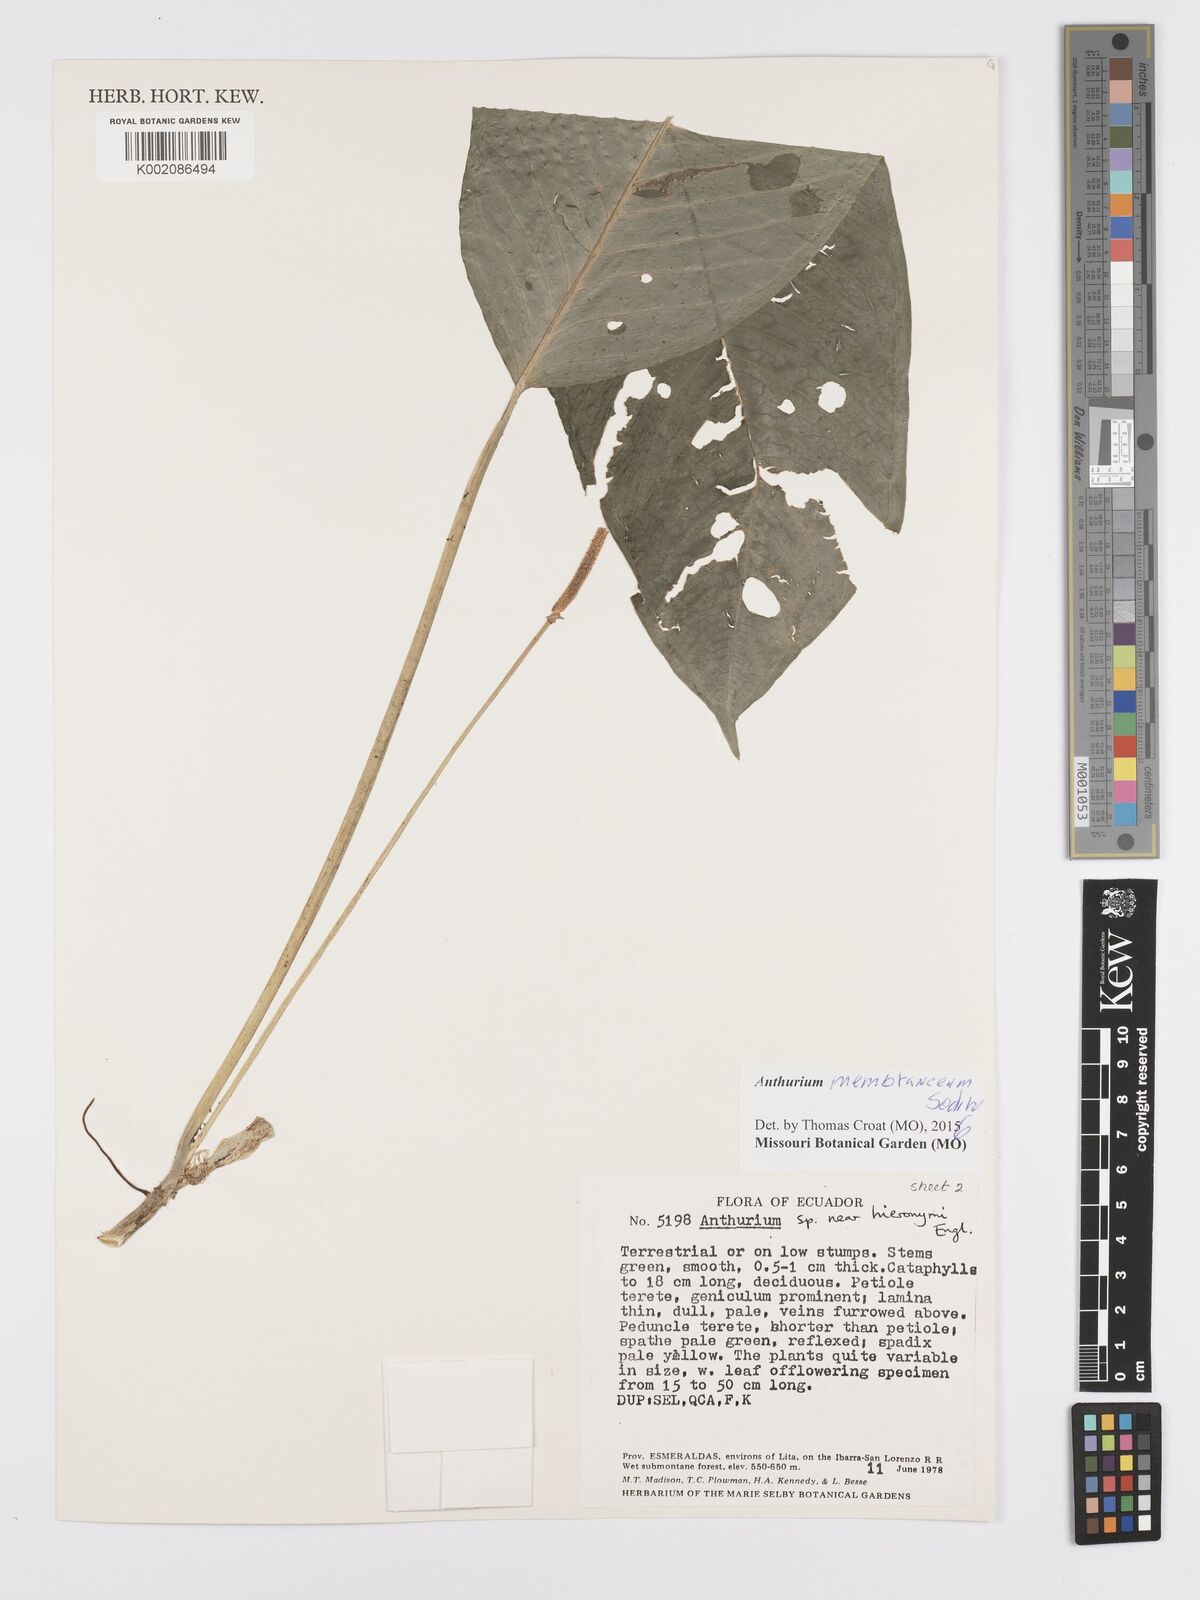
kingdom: Plantae
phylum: Tracheophyta
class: Liliopsida
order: Alismatales
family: Araceae
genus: Anthurium
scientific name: Anthurium membranaceum
